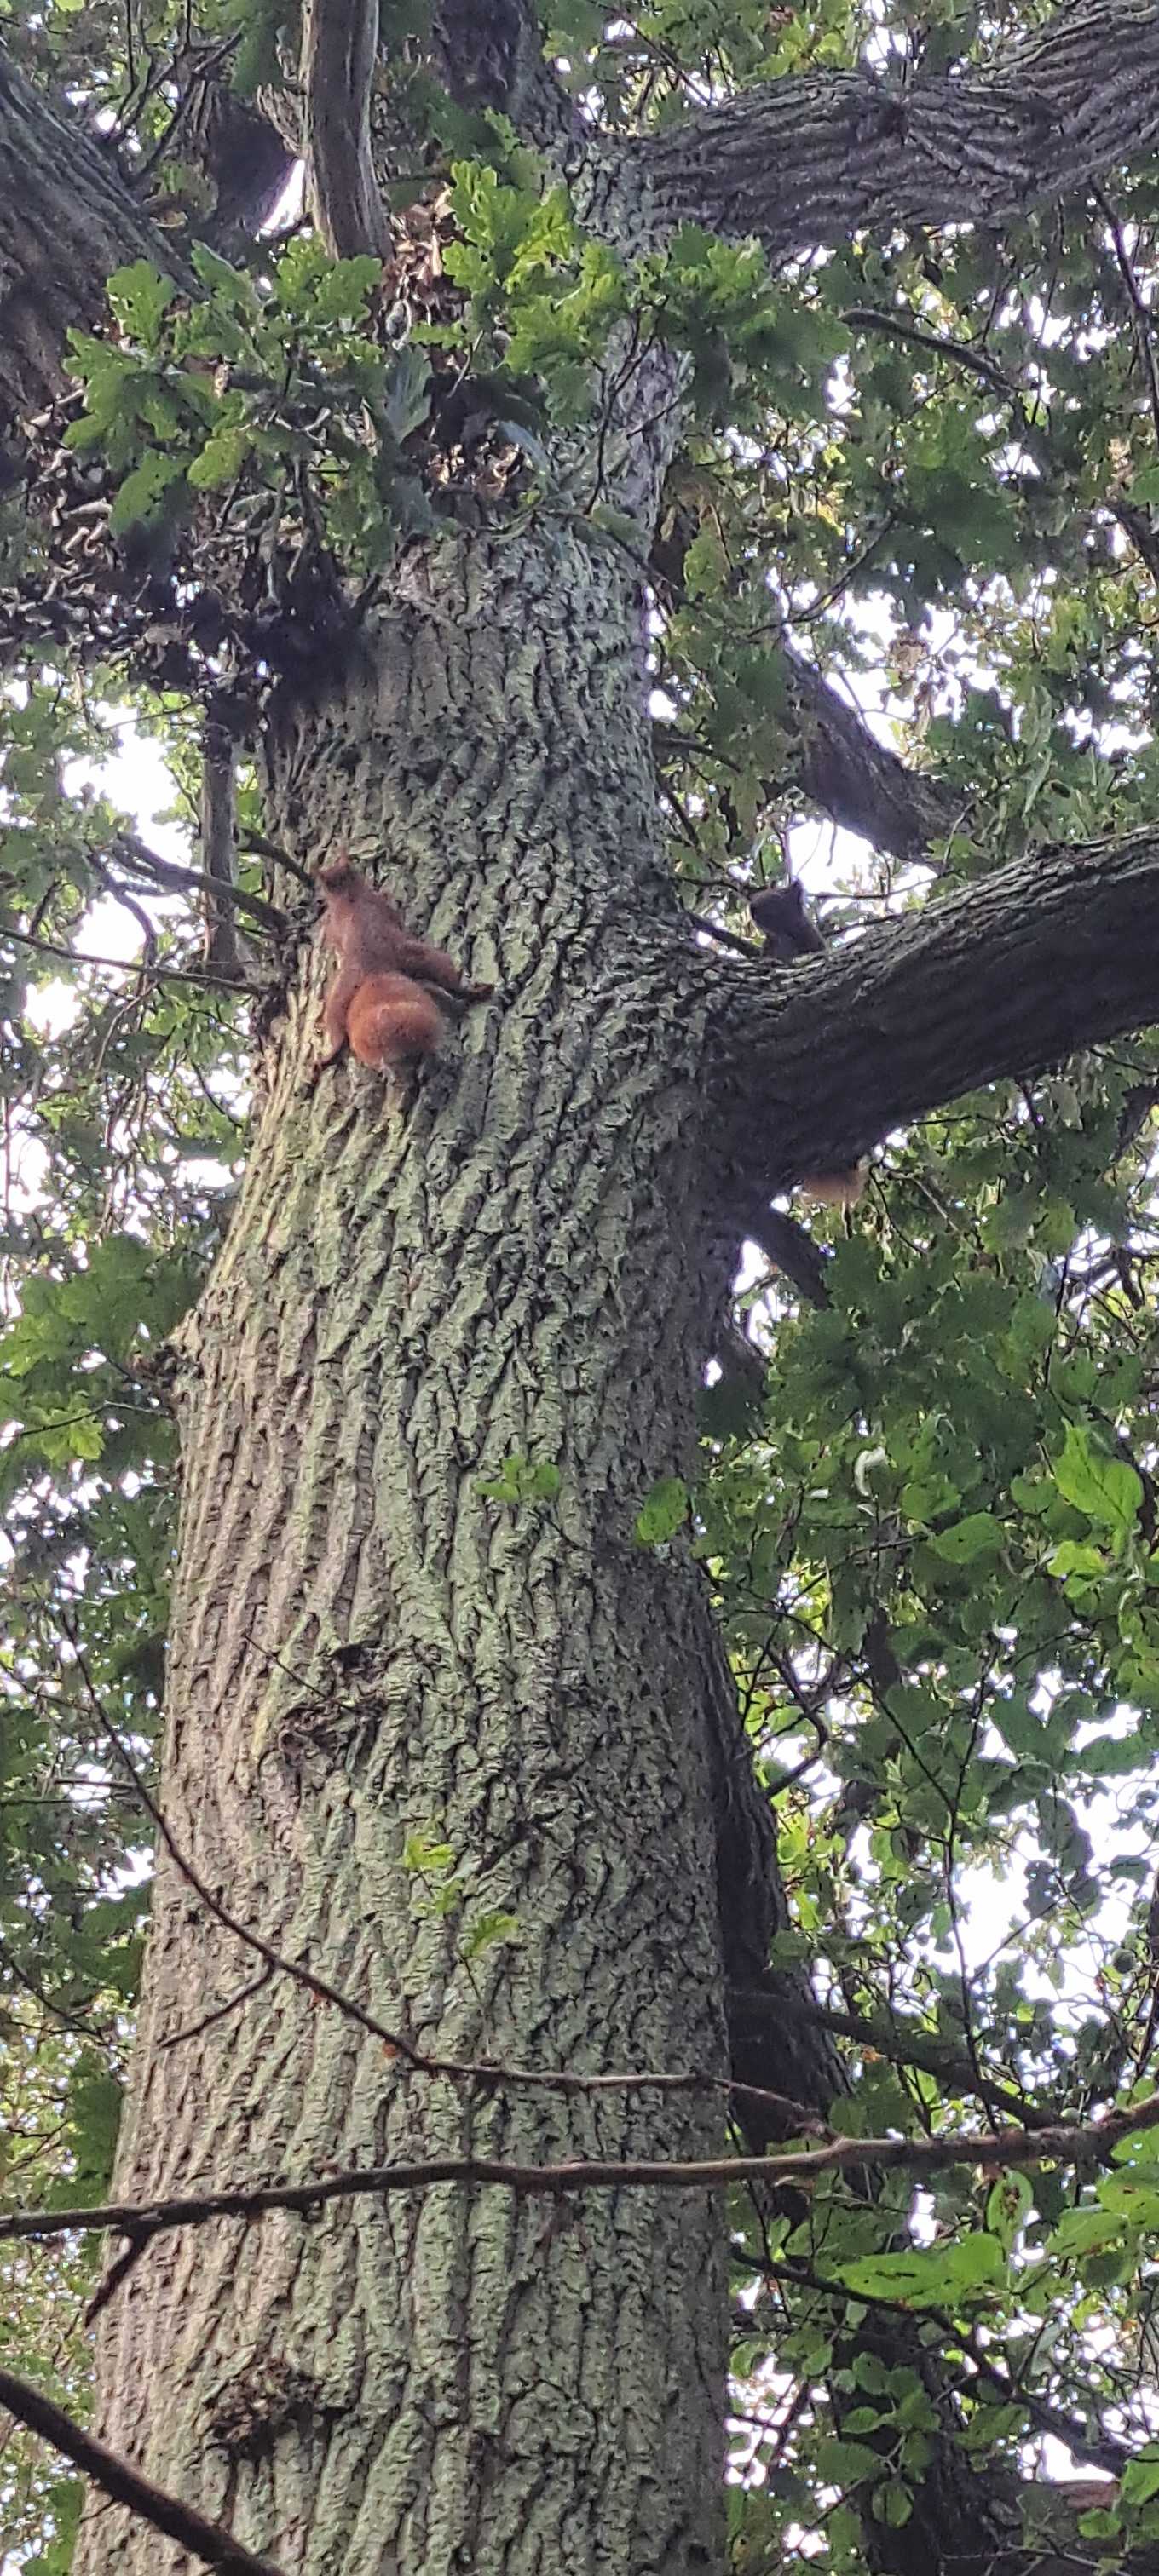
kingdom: Animalia
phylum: Chordata
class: Mammalia
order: Rodentia
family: Sciuridae
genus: Sciurus
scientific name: Sciurus vulgaris
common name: Egern
